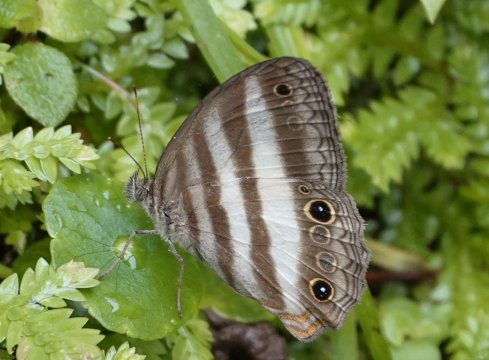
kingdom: Animalia
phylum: Arthropoda
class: Insecta
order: Lepidoptera
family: Nymphalidae
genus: Pareuptychia
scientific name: Pareuptychia metaleuca
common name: White-banded Satyr
